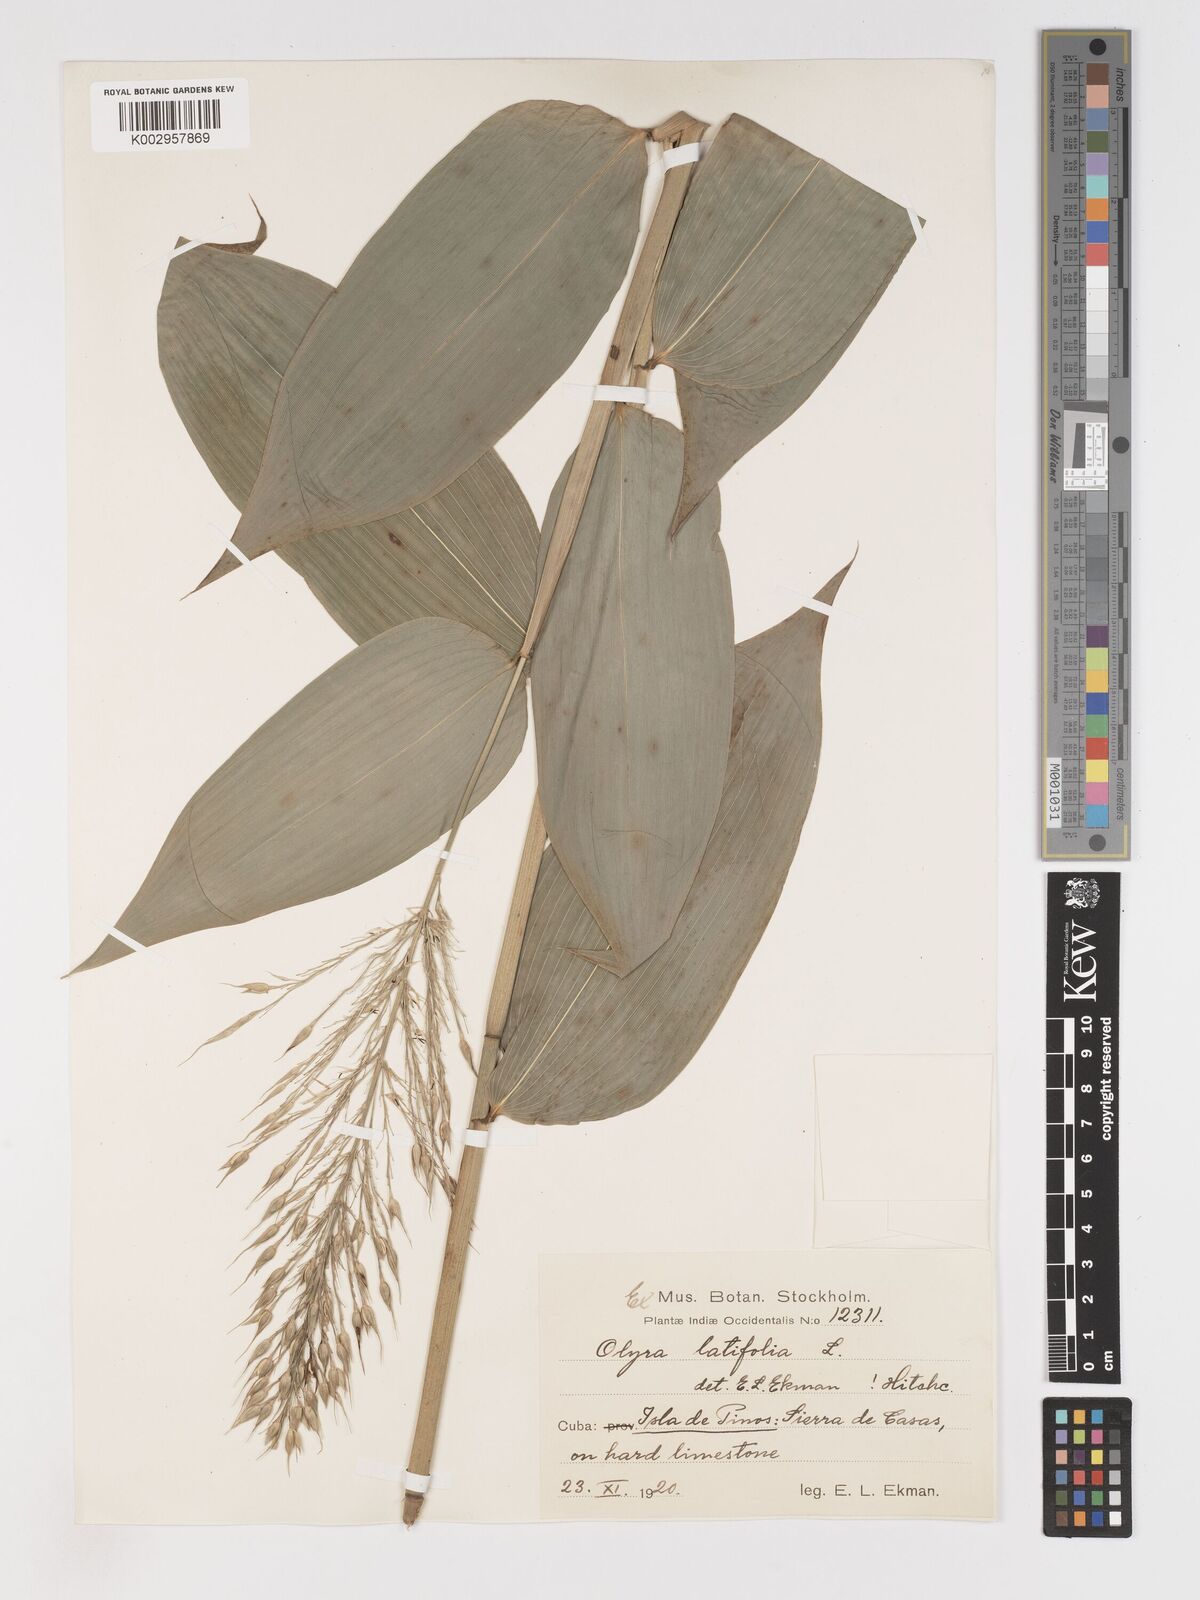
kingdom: Plantae
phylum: Tracheophyta
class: Liliopsida
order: Poales
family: Poaceae
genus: Olyra
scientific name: Olyra latifolia
